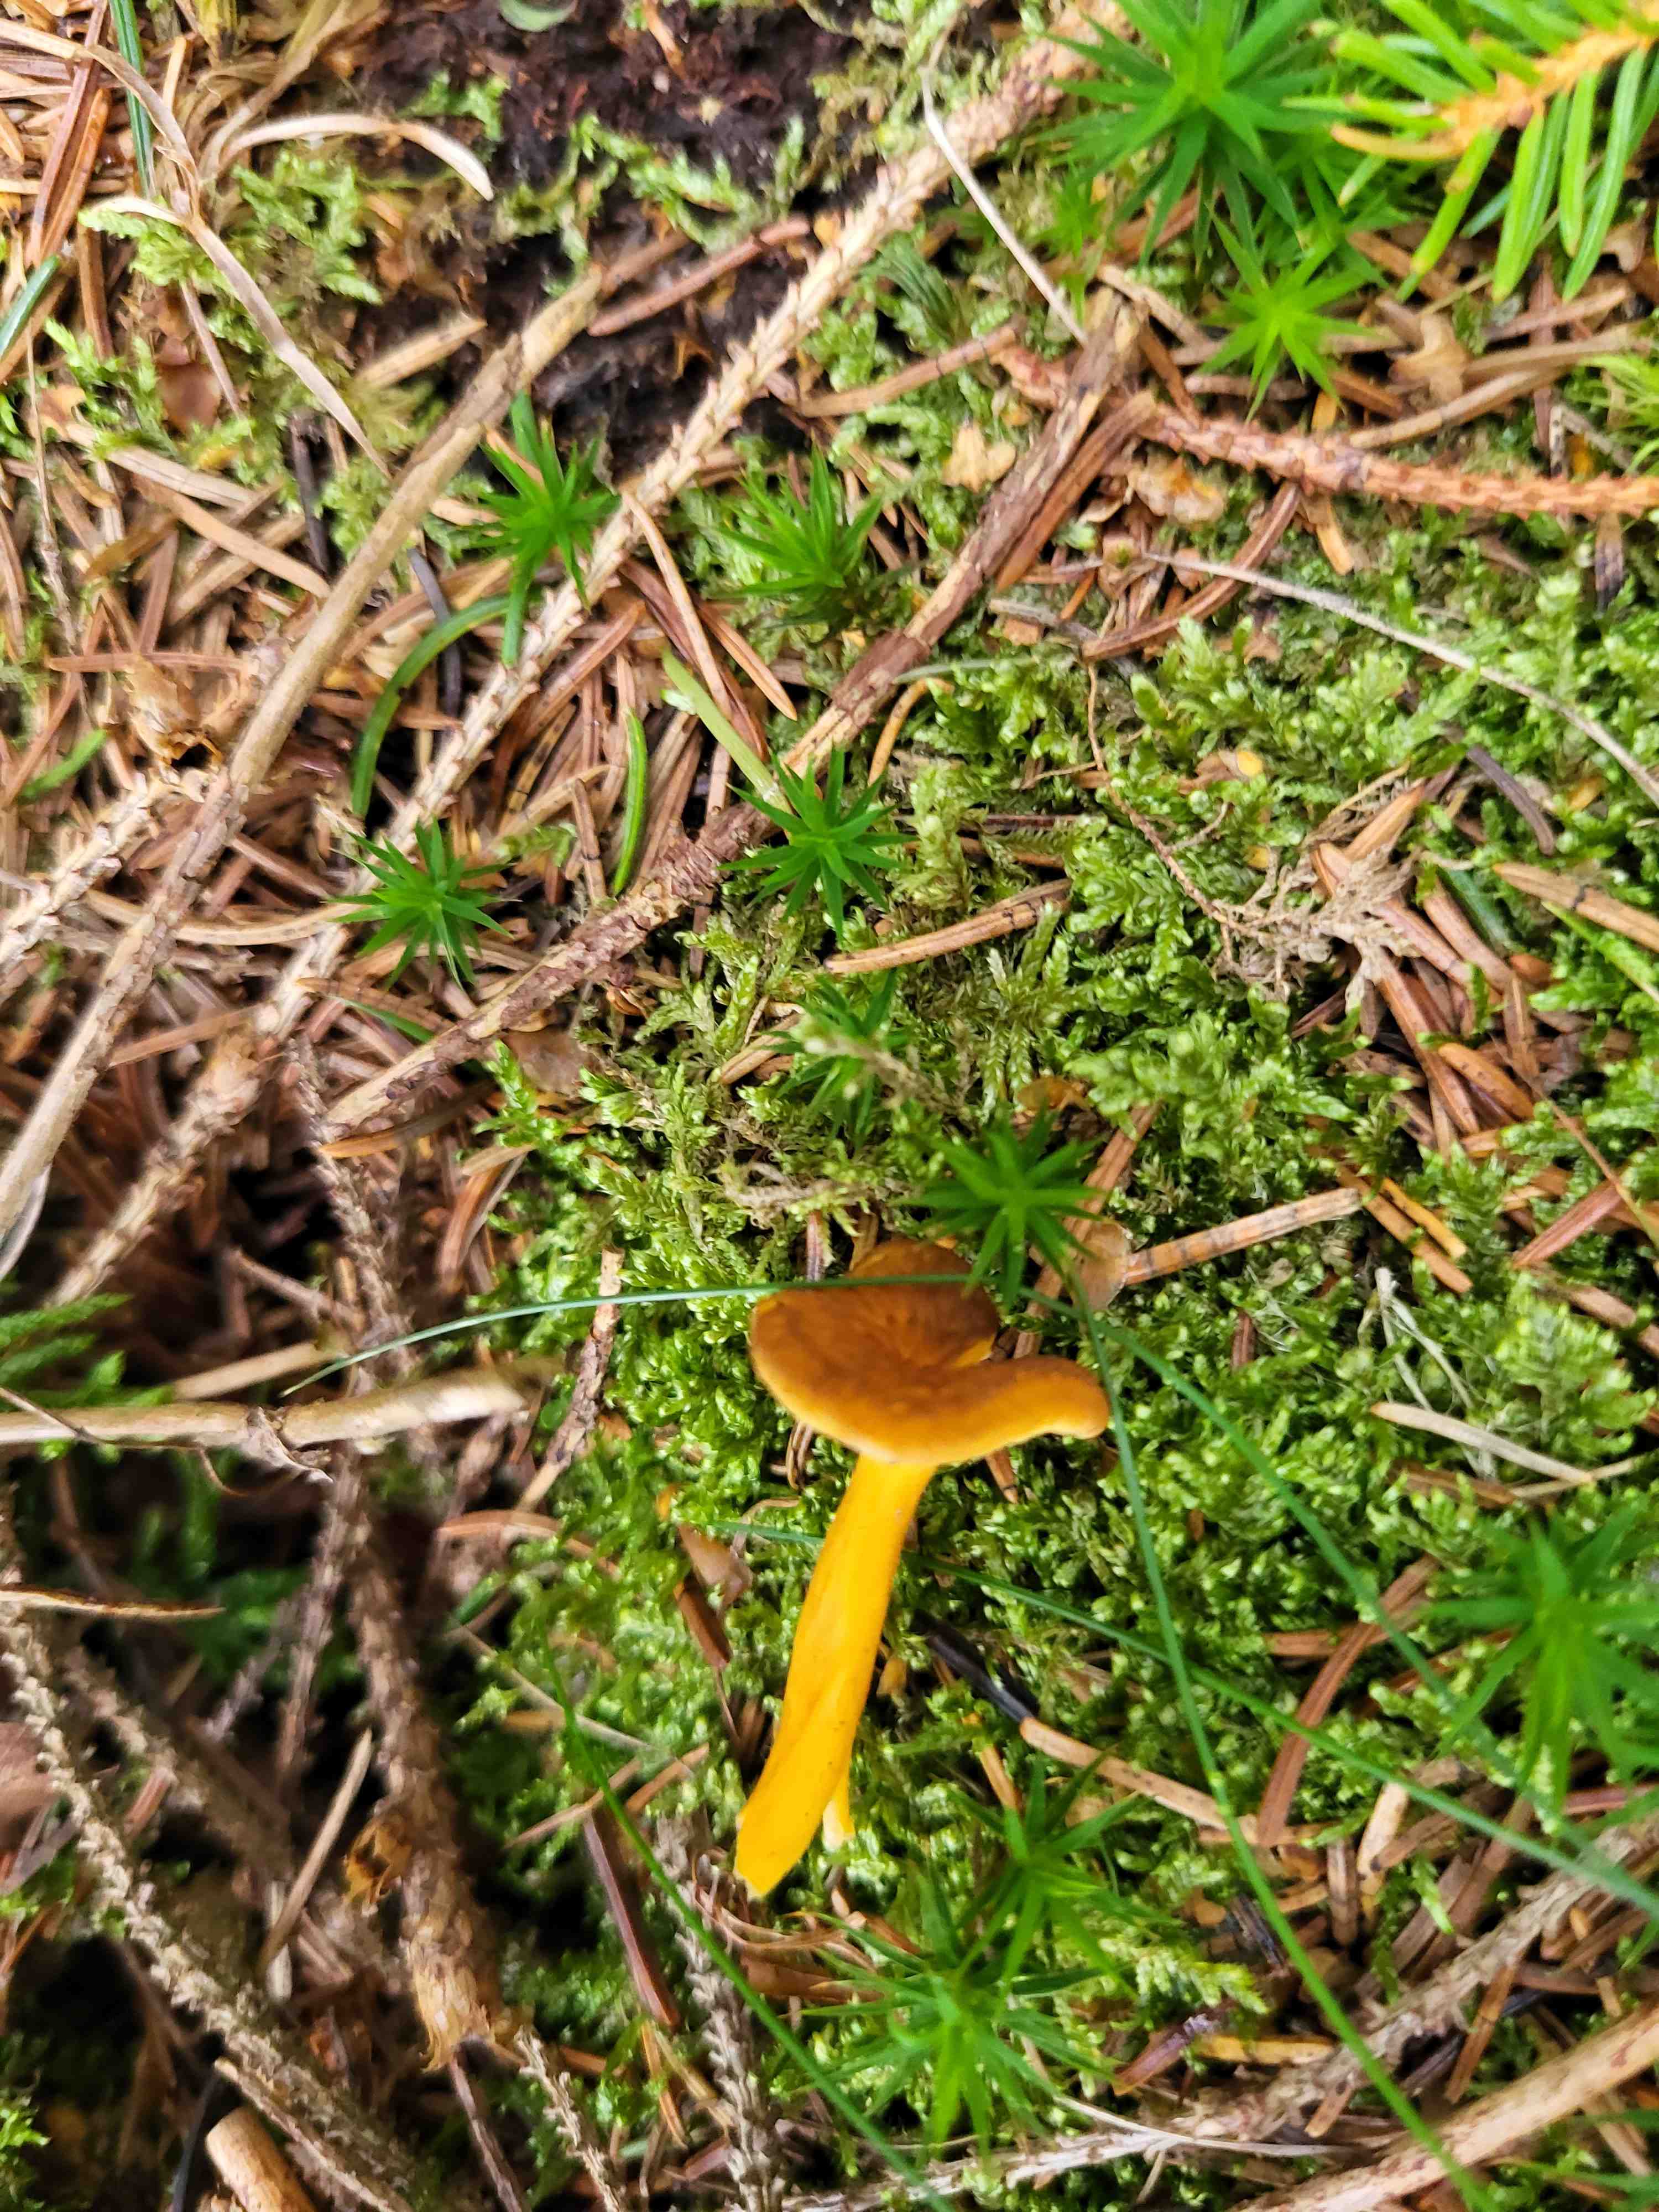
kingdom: Fungi
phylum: Basidiomycota
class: Agaricomycetes
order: Cantharellales
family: Hydnaceae
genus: Craterellus
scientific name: Craterellus tubaeformis
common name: tragt-kantarel
